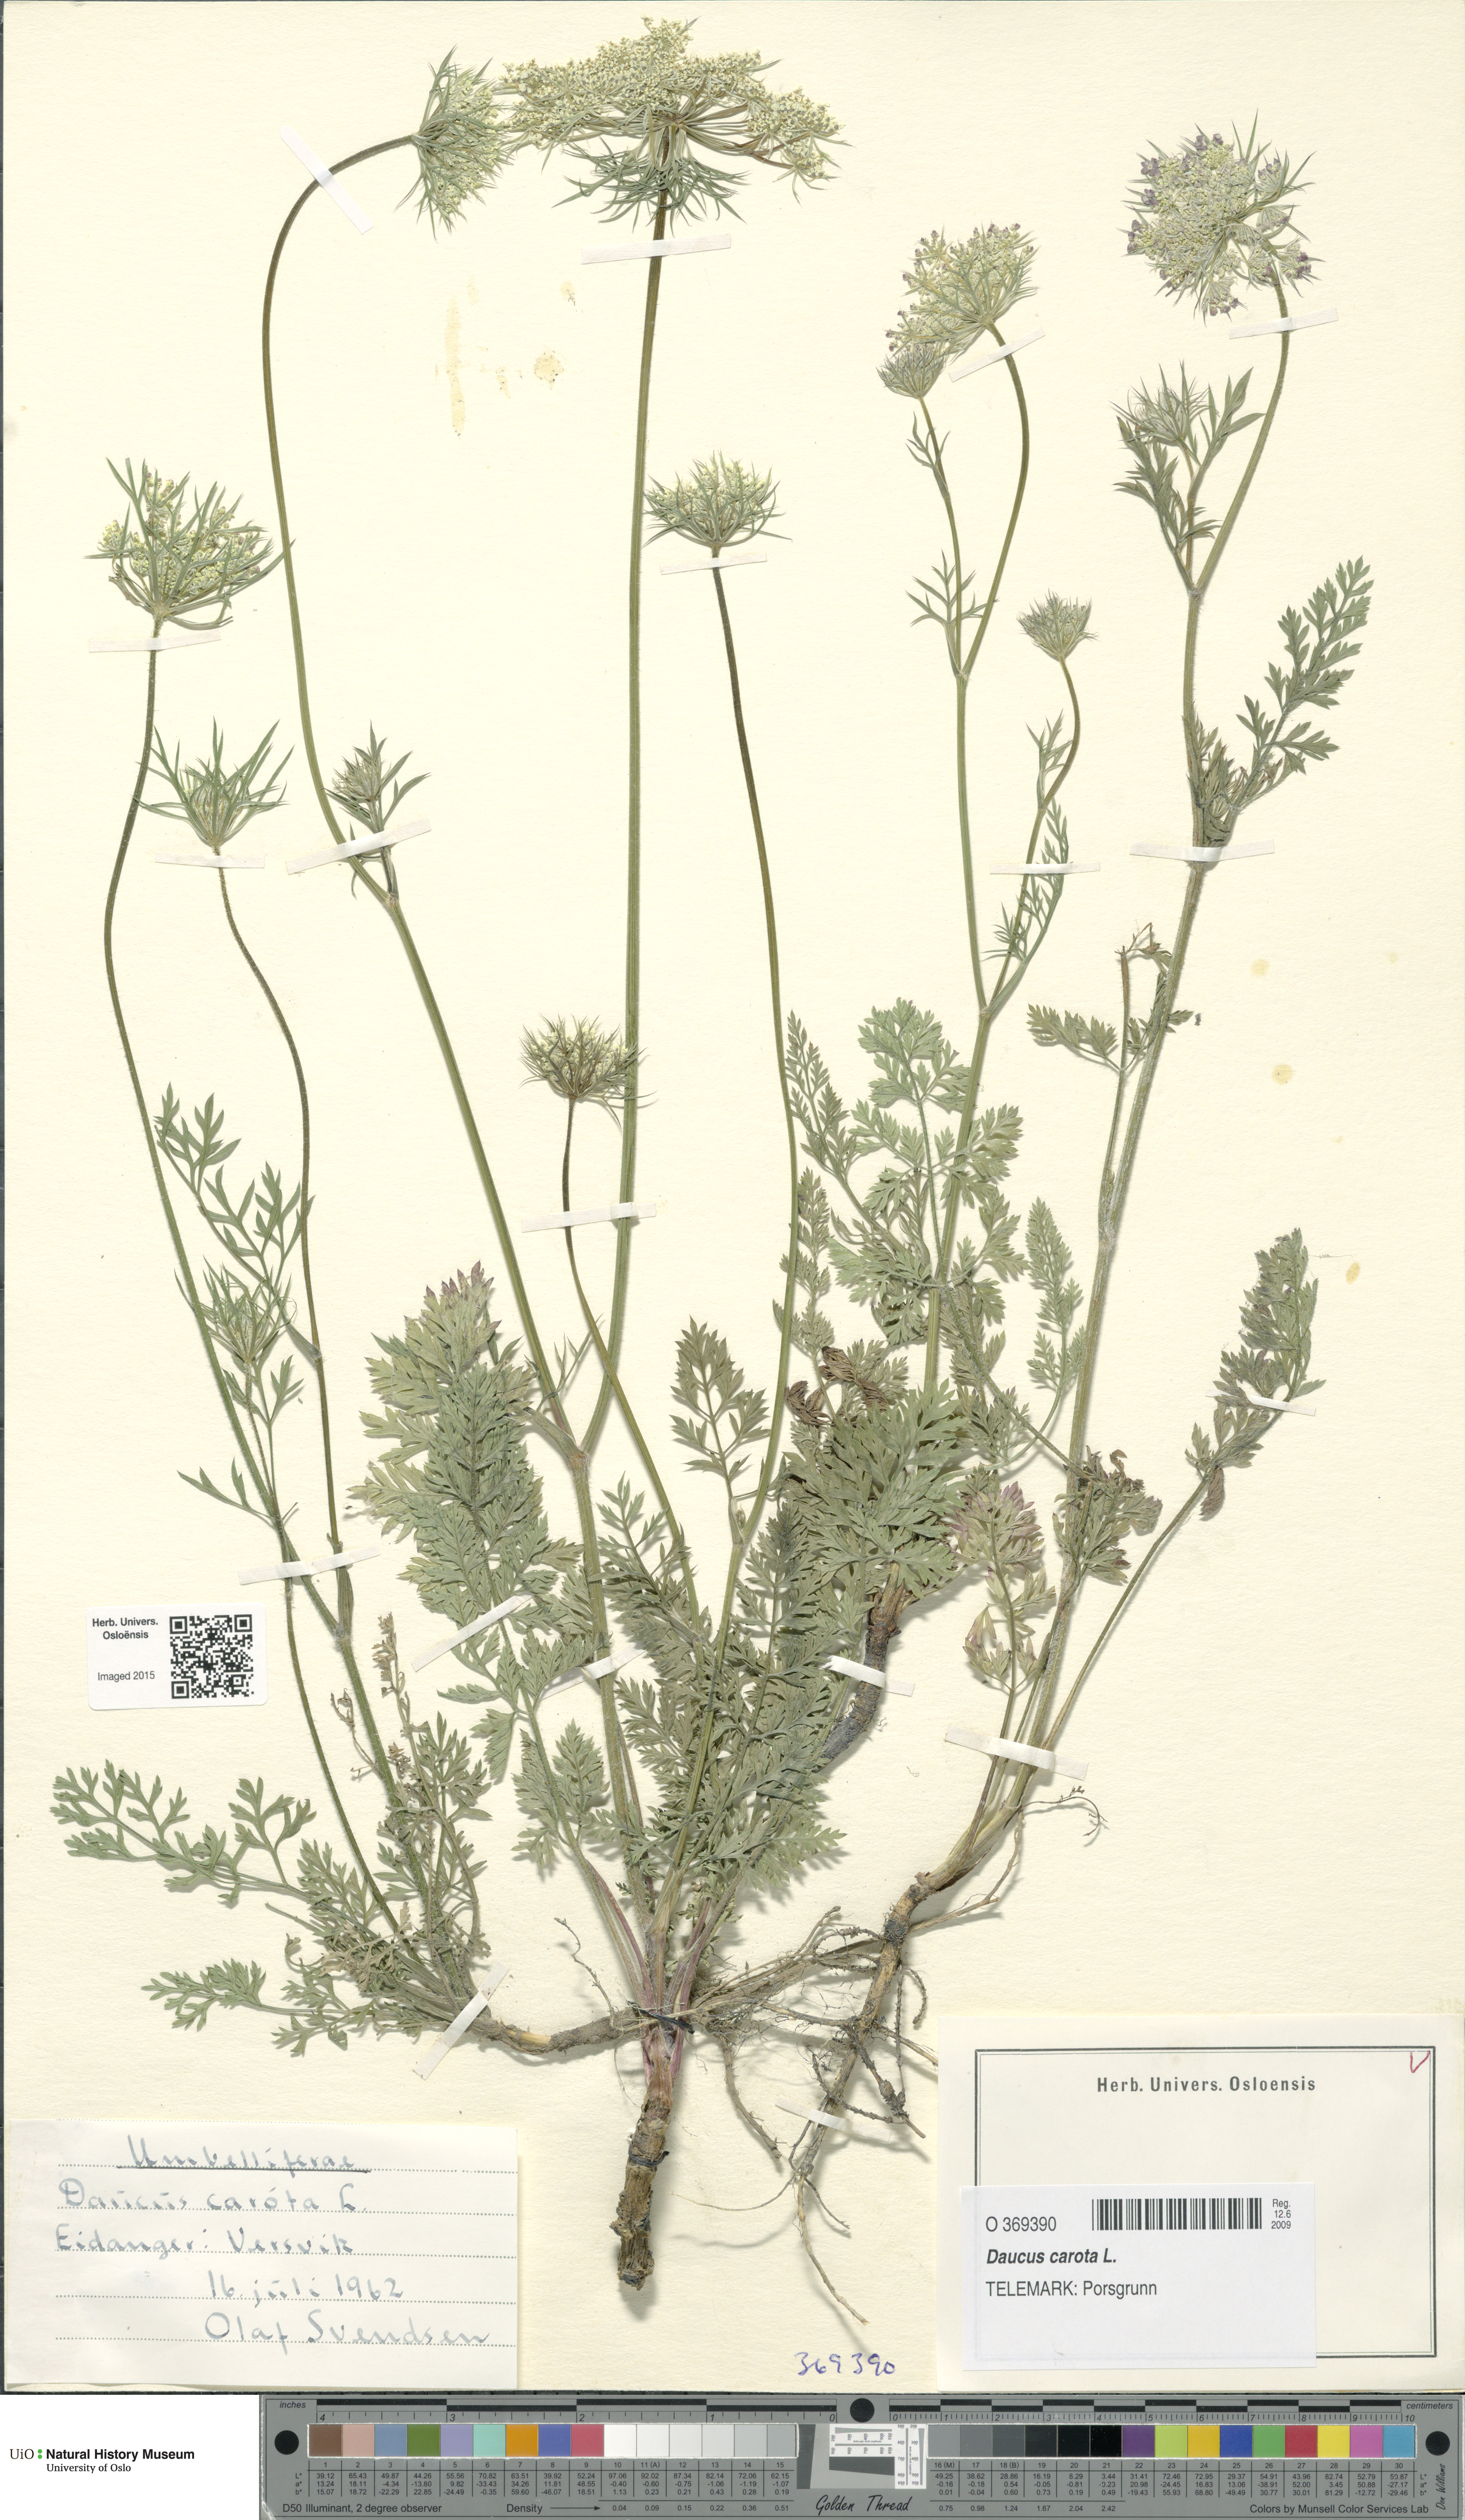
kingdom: Plantae
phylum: Tracheophyta
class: Magnoliopsida
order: Apiales
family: Apiaceae
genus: Daucus
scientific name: Daucus carota
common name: Wild carrot
